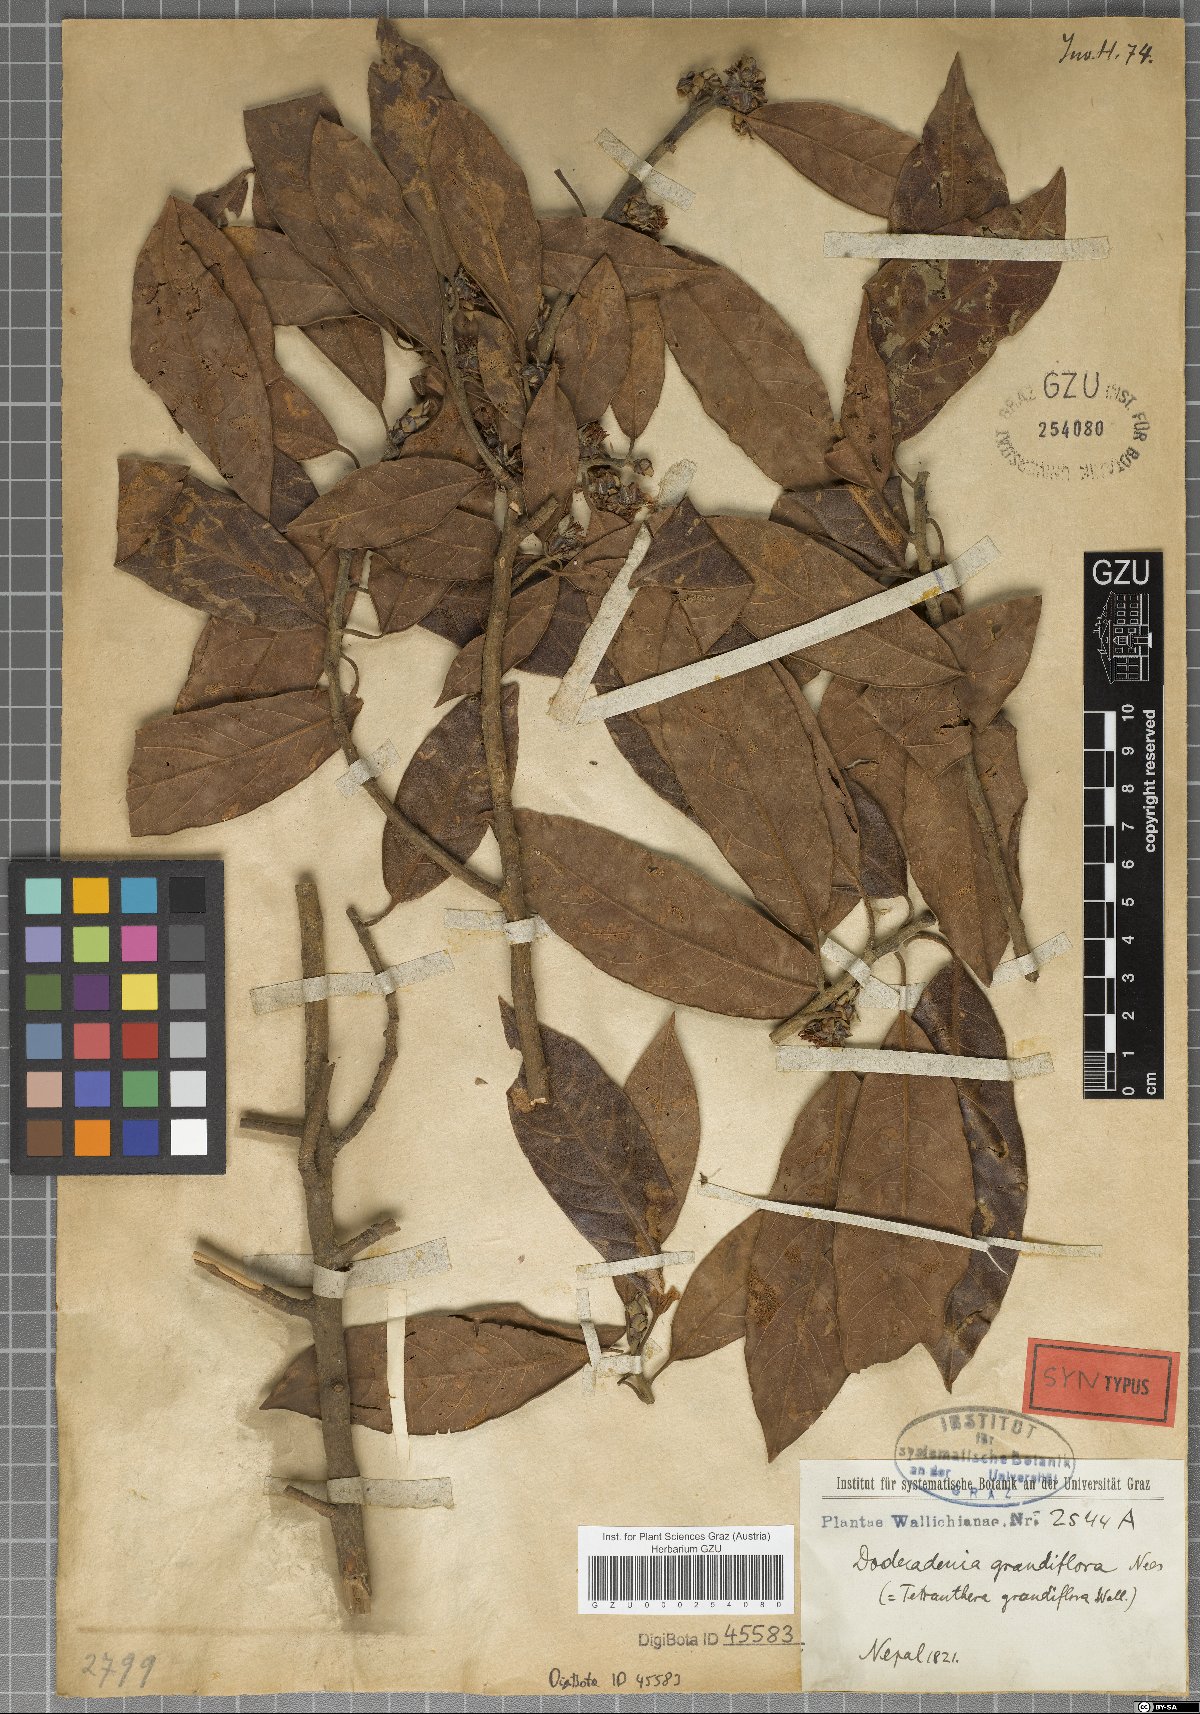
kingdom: Plantae
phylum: Tracheophyta
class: Magnoliopsida
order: Laurales
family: Lauraceae
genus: Dodecadenia
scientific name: Dodecadenia grandiflora
